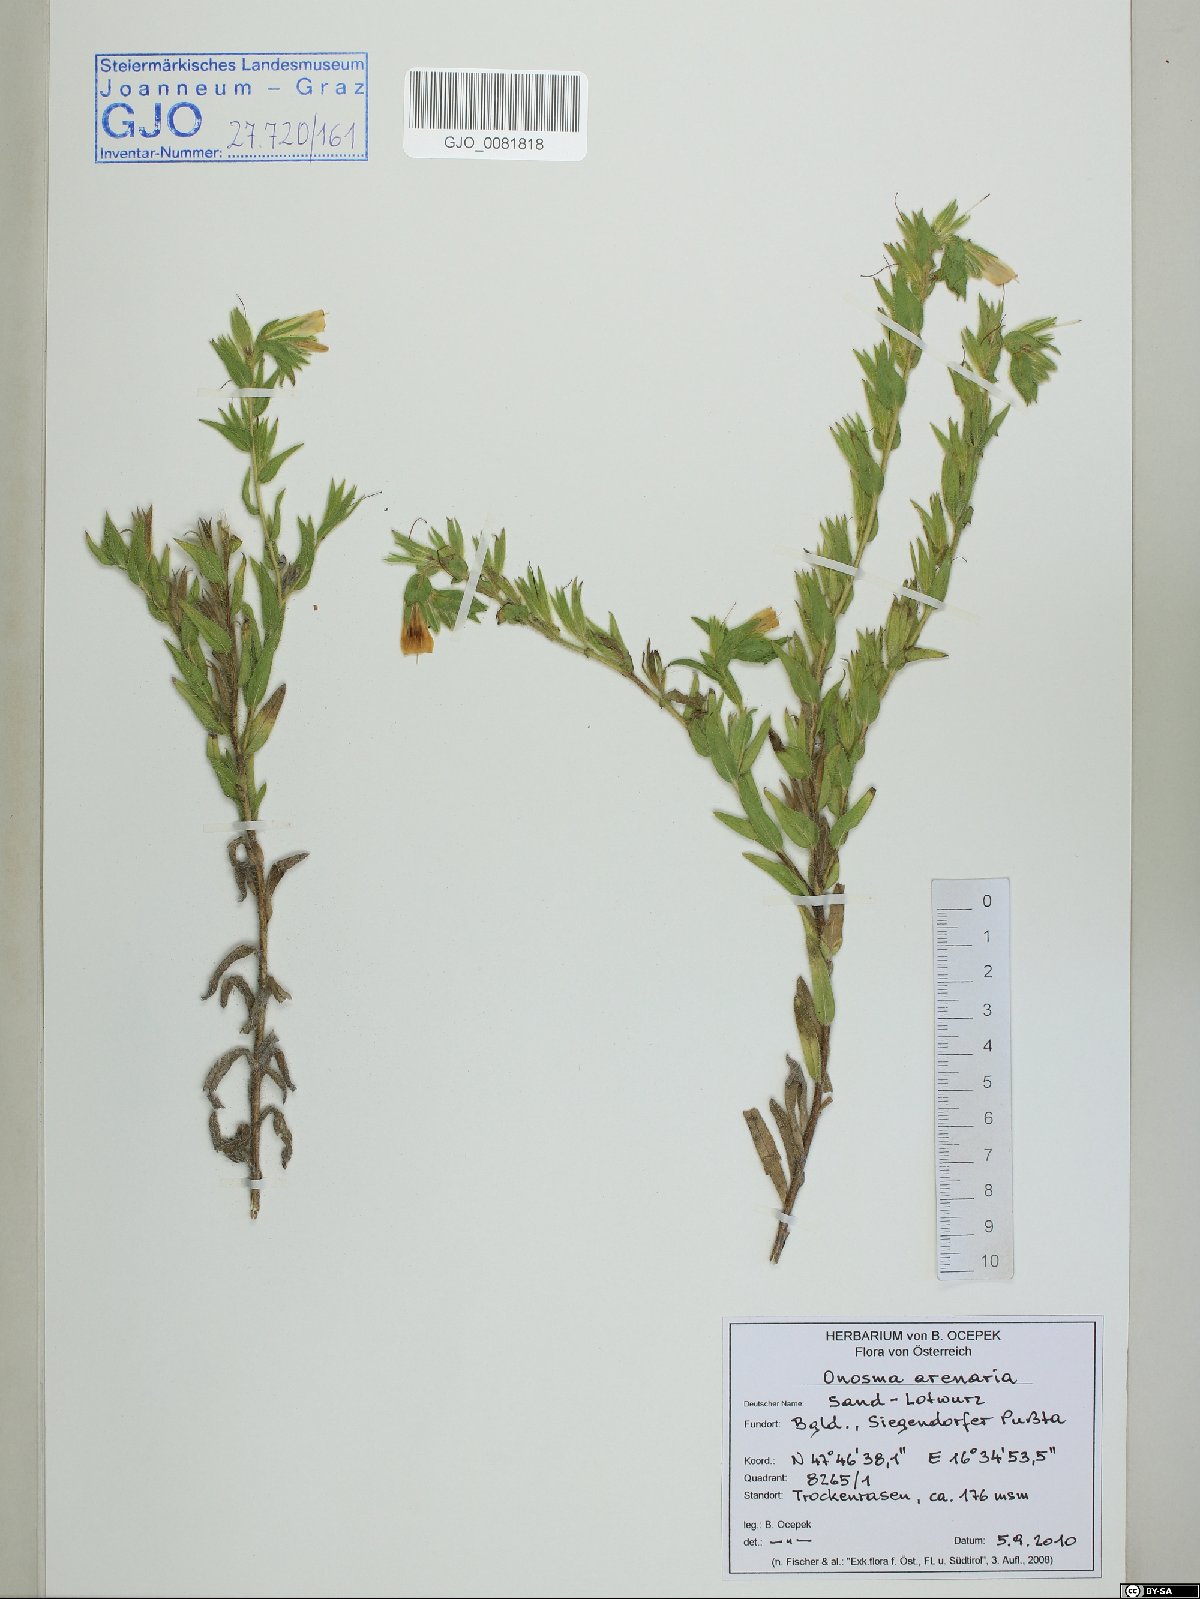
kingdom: Plantae
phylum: Tracheophyta
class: Magnoliopsida
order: Boraginales
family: Boraginaceae
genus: Onosma
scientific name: Onosma arenaria
